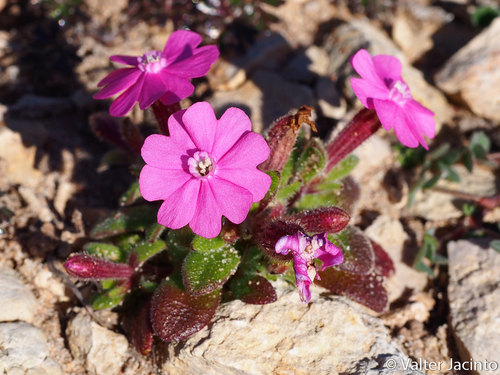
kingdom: Plantae
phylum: Tracheophyta
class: Magnoliopsida
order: Caryophyllales
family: Caryophyllaceae
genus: Silene
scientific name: Silene littorea
